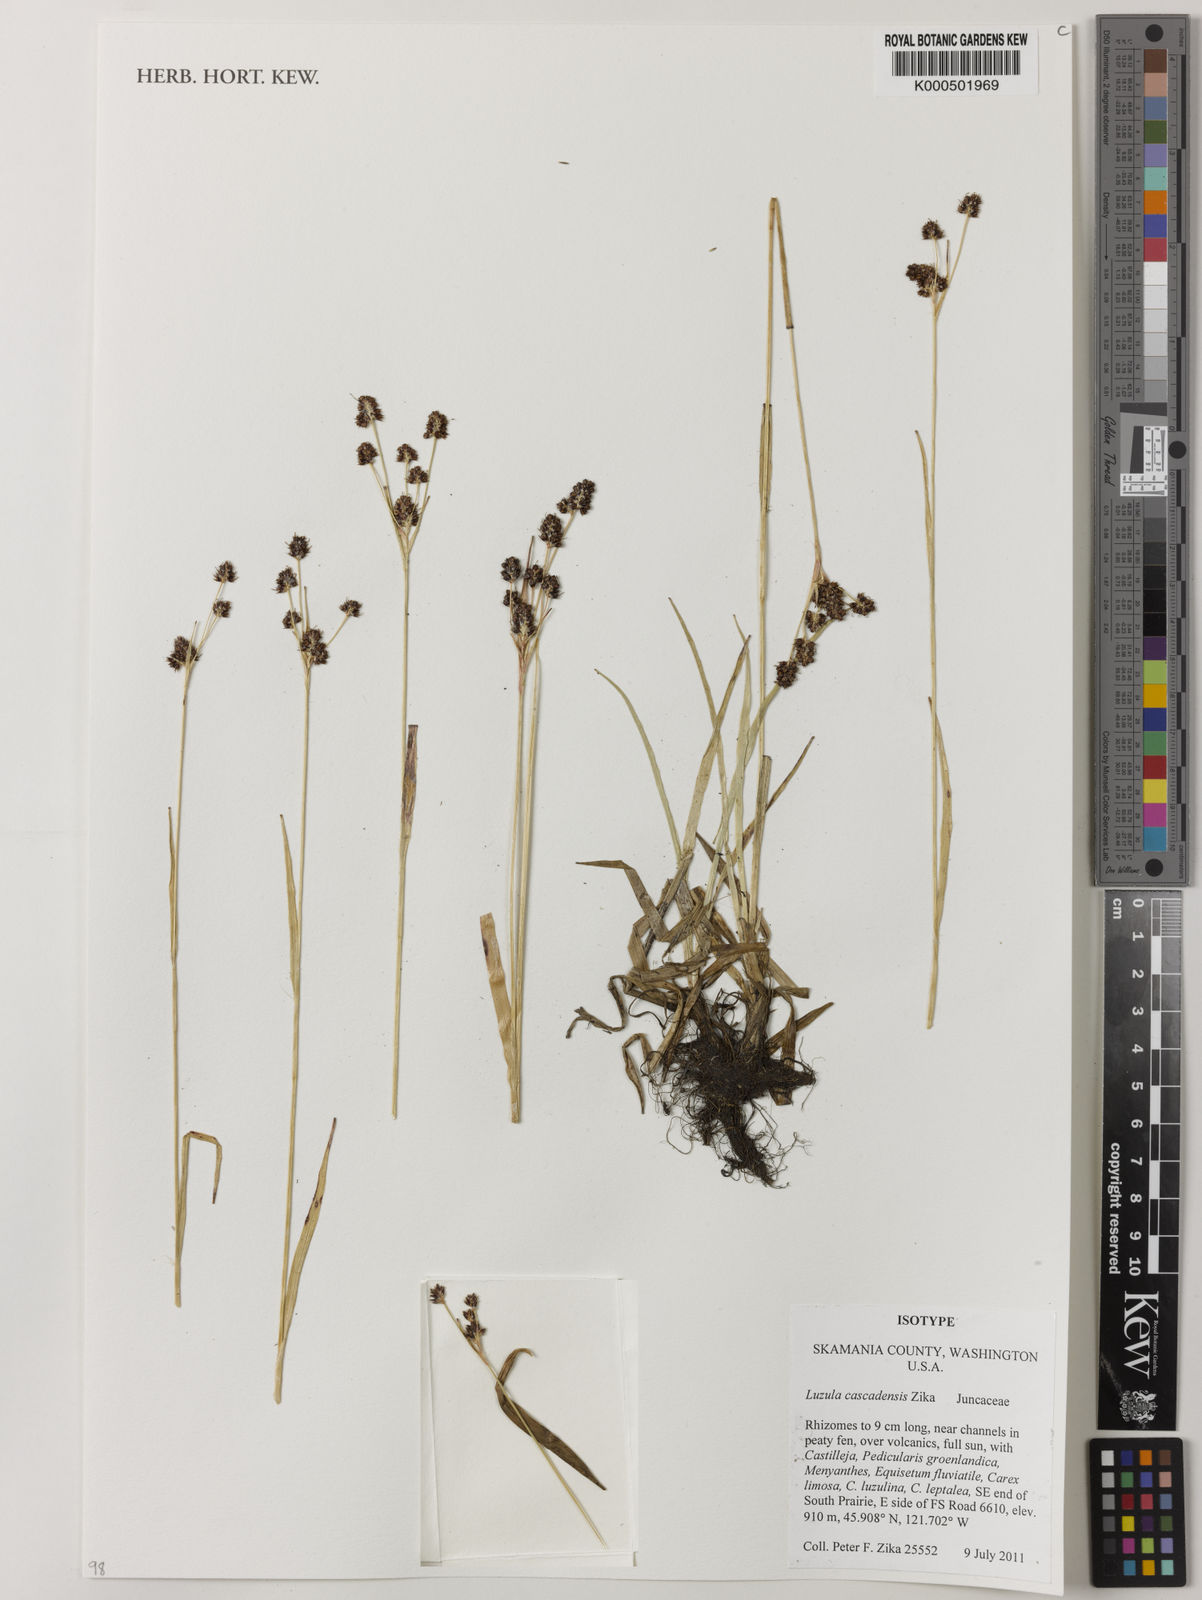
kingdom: Plantae
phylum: Tracheophyta
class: Liliopsida
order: Poales
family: Juncaceae
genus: Luzula
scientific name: Luzula cascadensis
